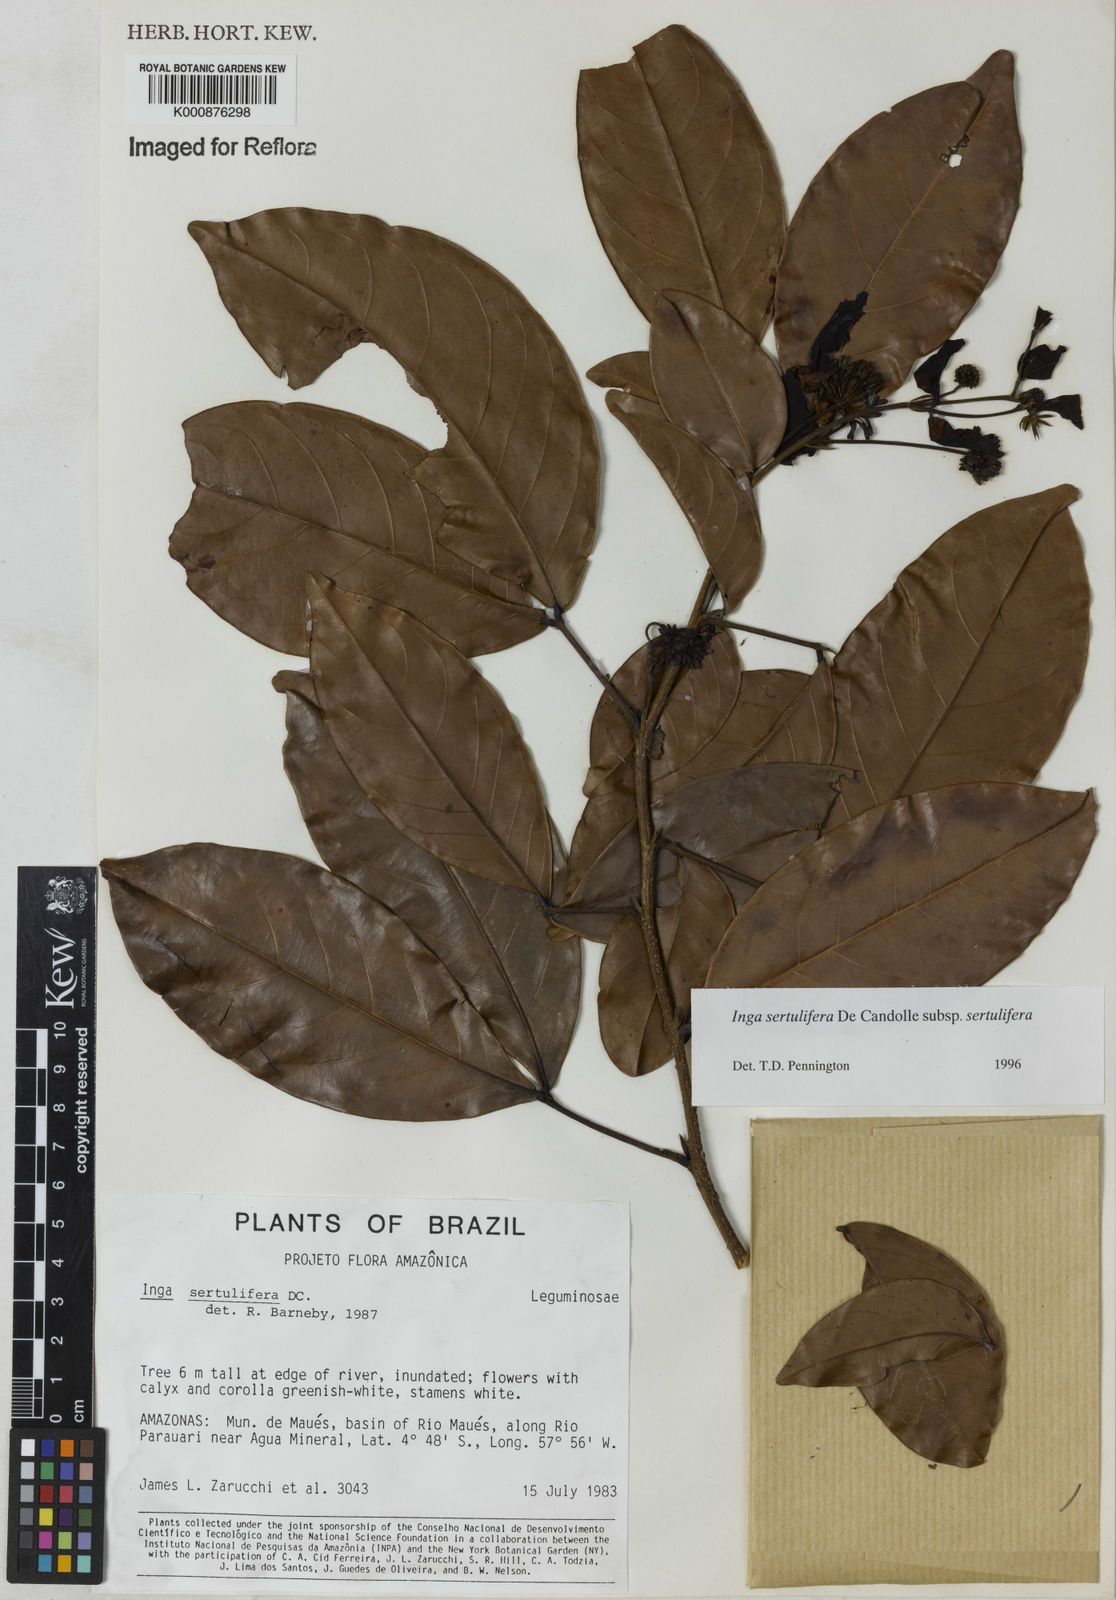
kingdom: Plantae
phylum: Tracheophyta
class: Magnoliopsida
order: Fabales
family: Fabaceae
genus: Inga
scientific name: Inga sertulifera
